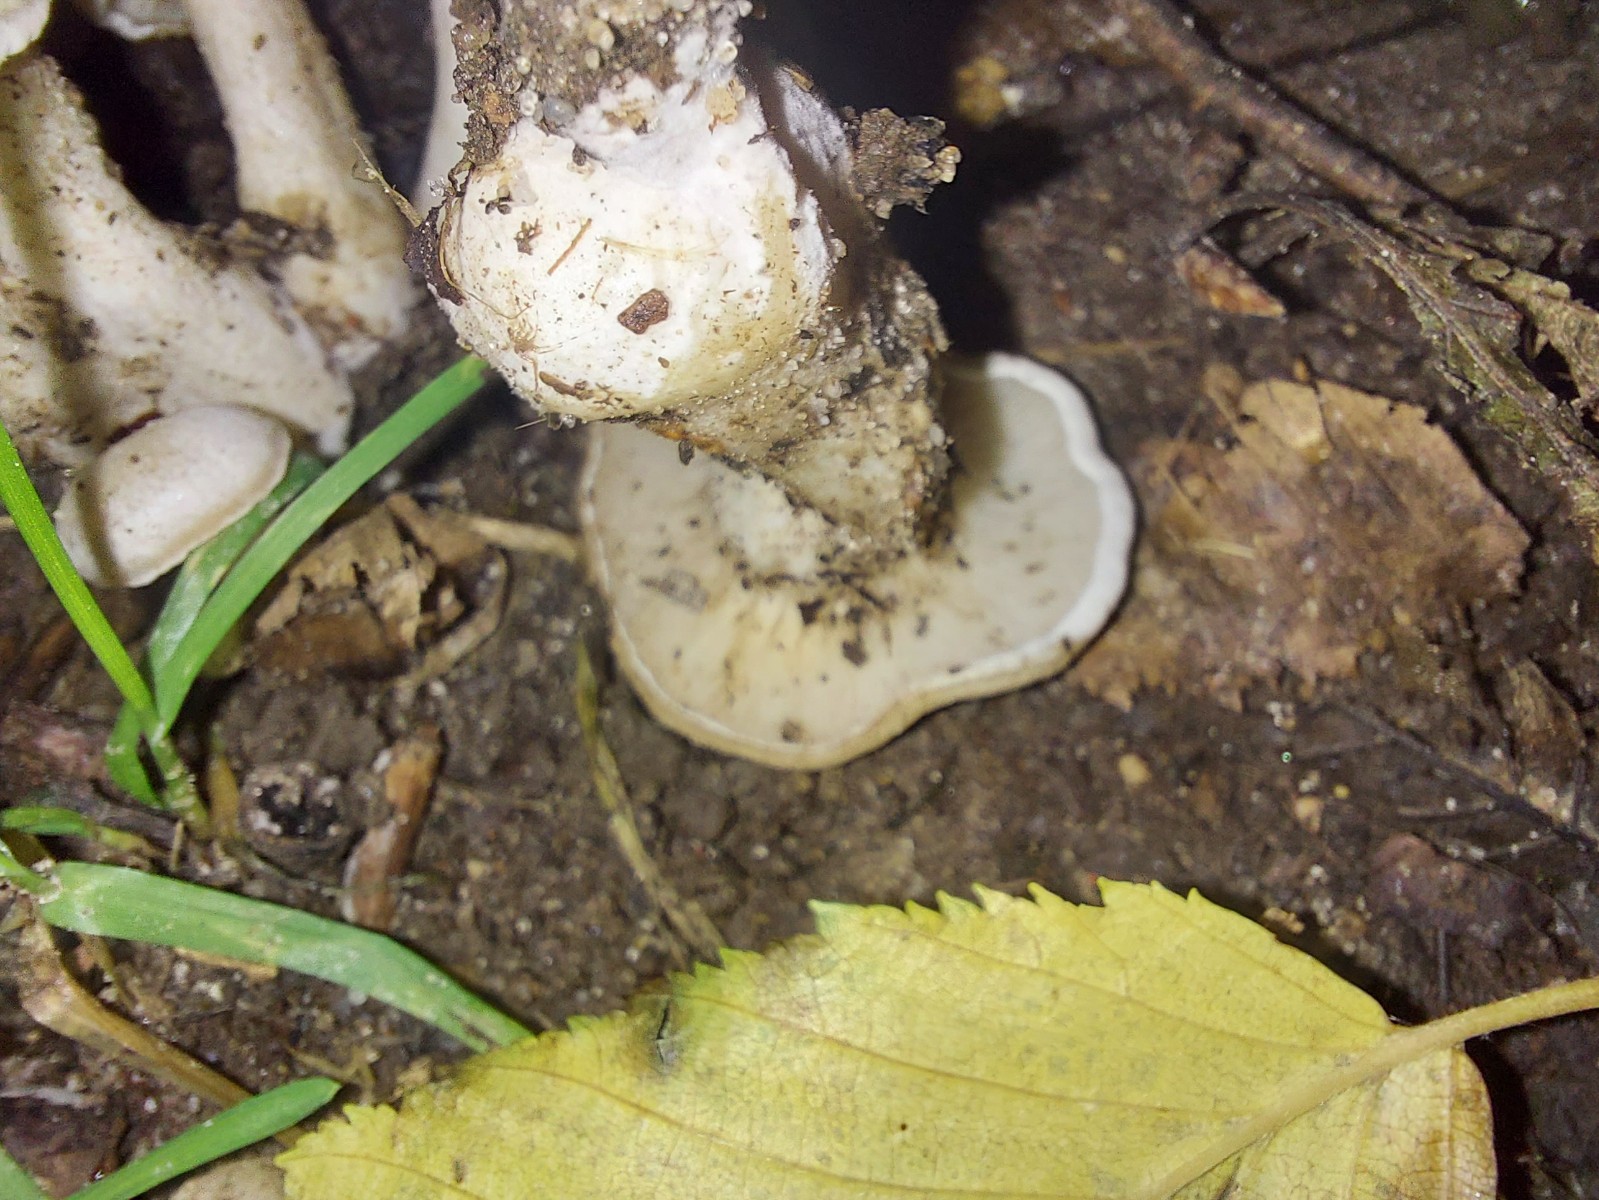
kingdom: Fungi
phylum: Basidiomycota
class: Agaricomycetes
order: Agaricales
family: Tricholomataceae
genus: Leucocybe
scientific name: Leucocybe connata
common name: knippe-tragthat
